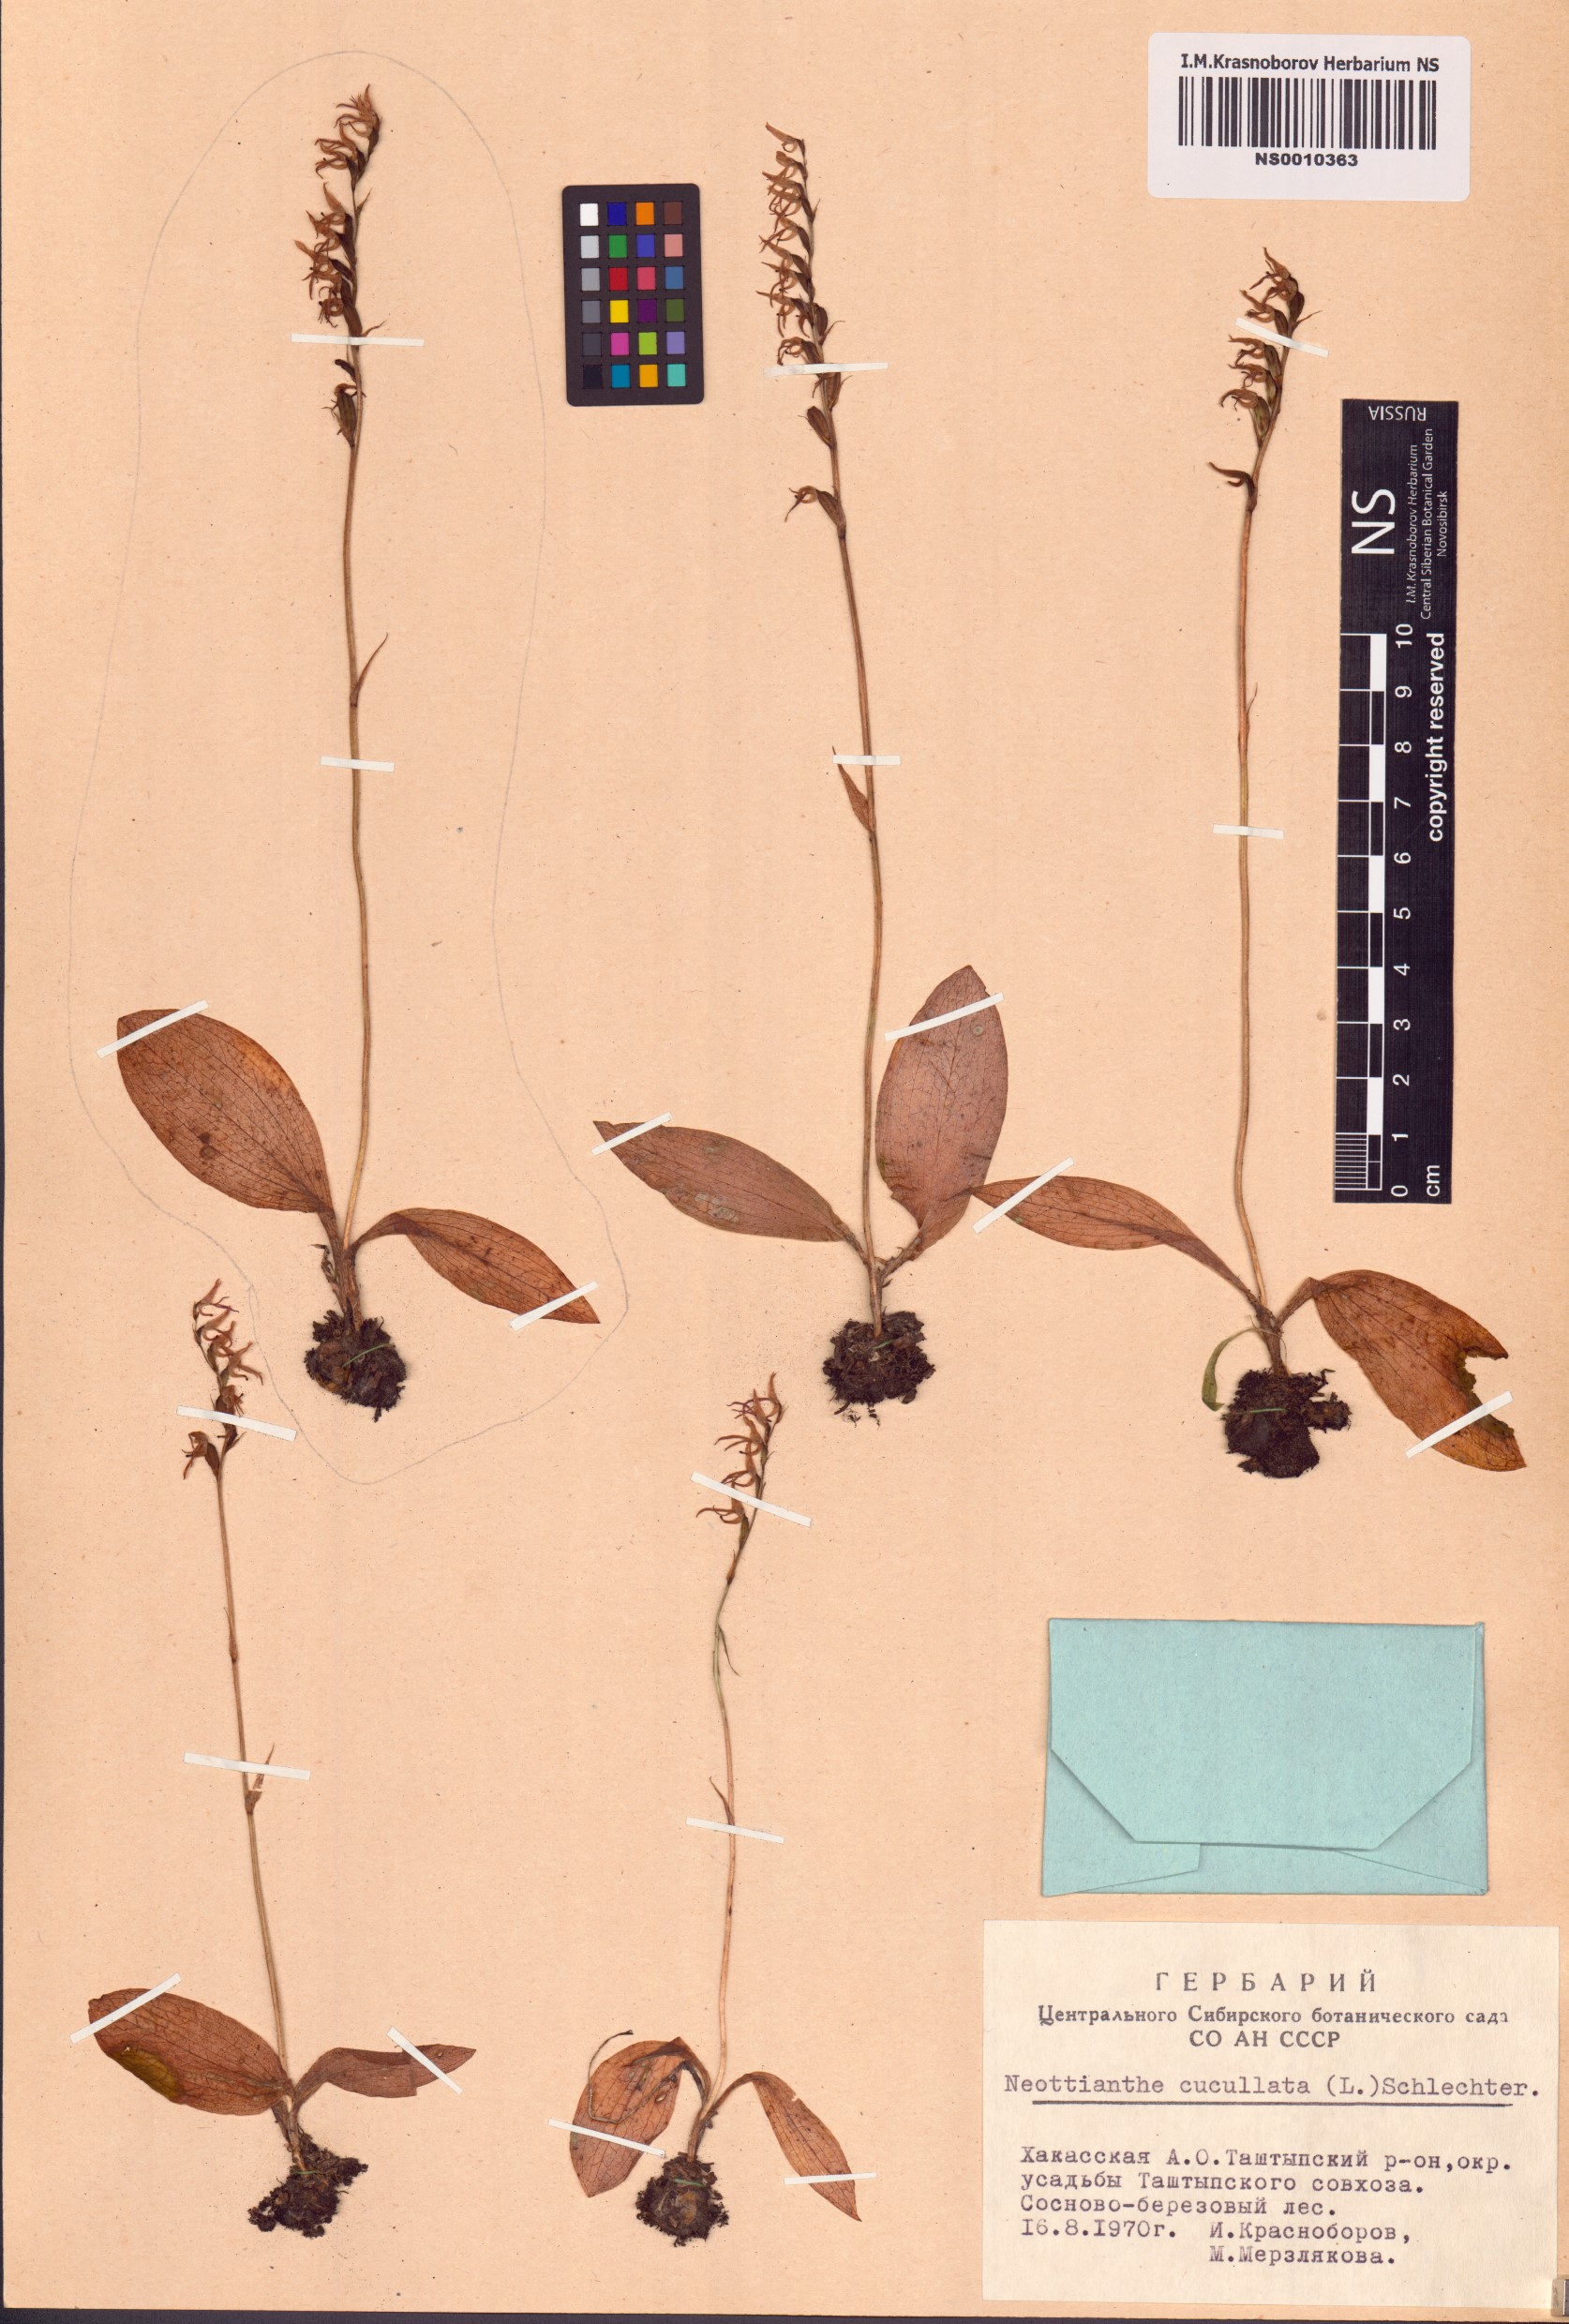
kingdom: Plantae
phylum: Tracheophyta
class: Liliopsida
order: Asparagales
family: Orchidaceae
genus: Hemipilia
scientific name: Hemipilia cucullata
